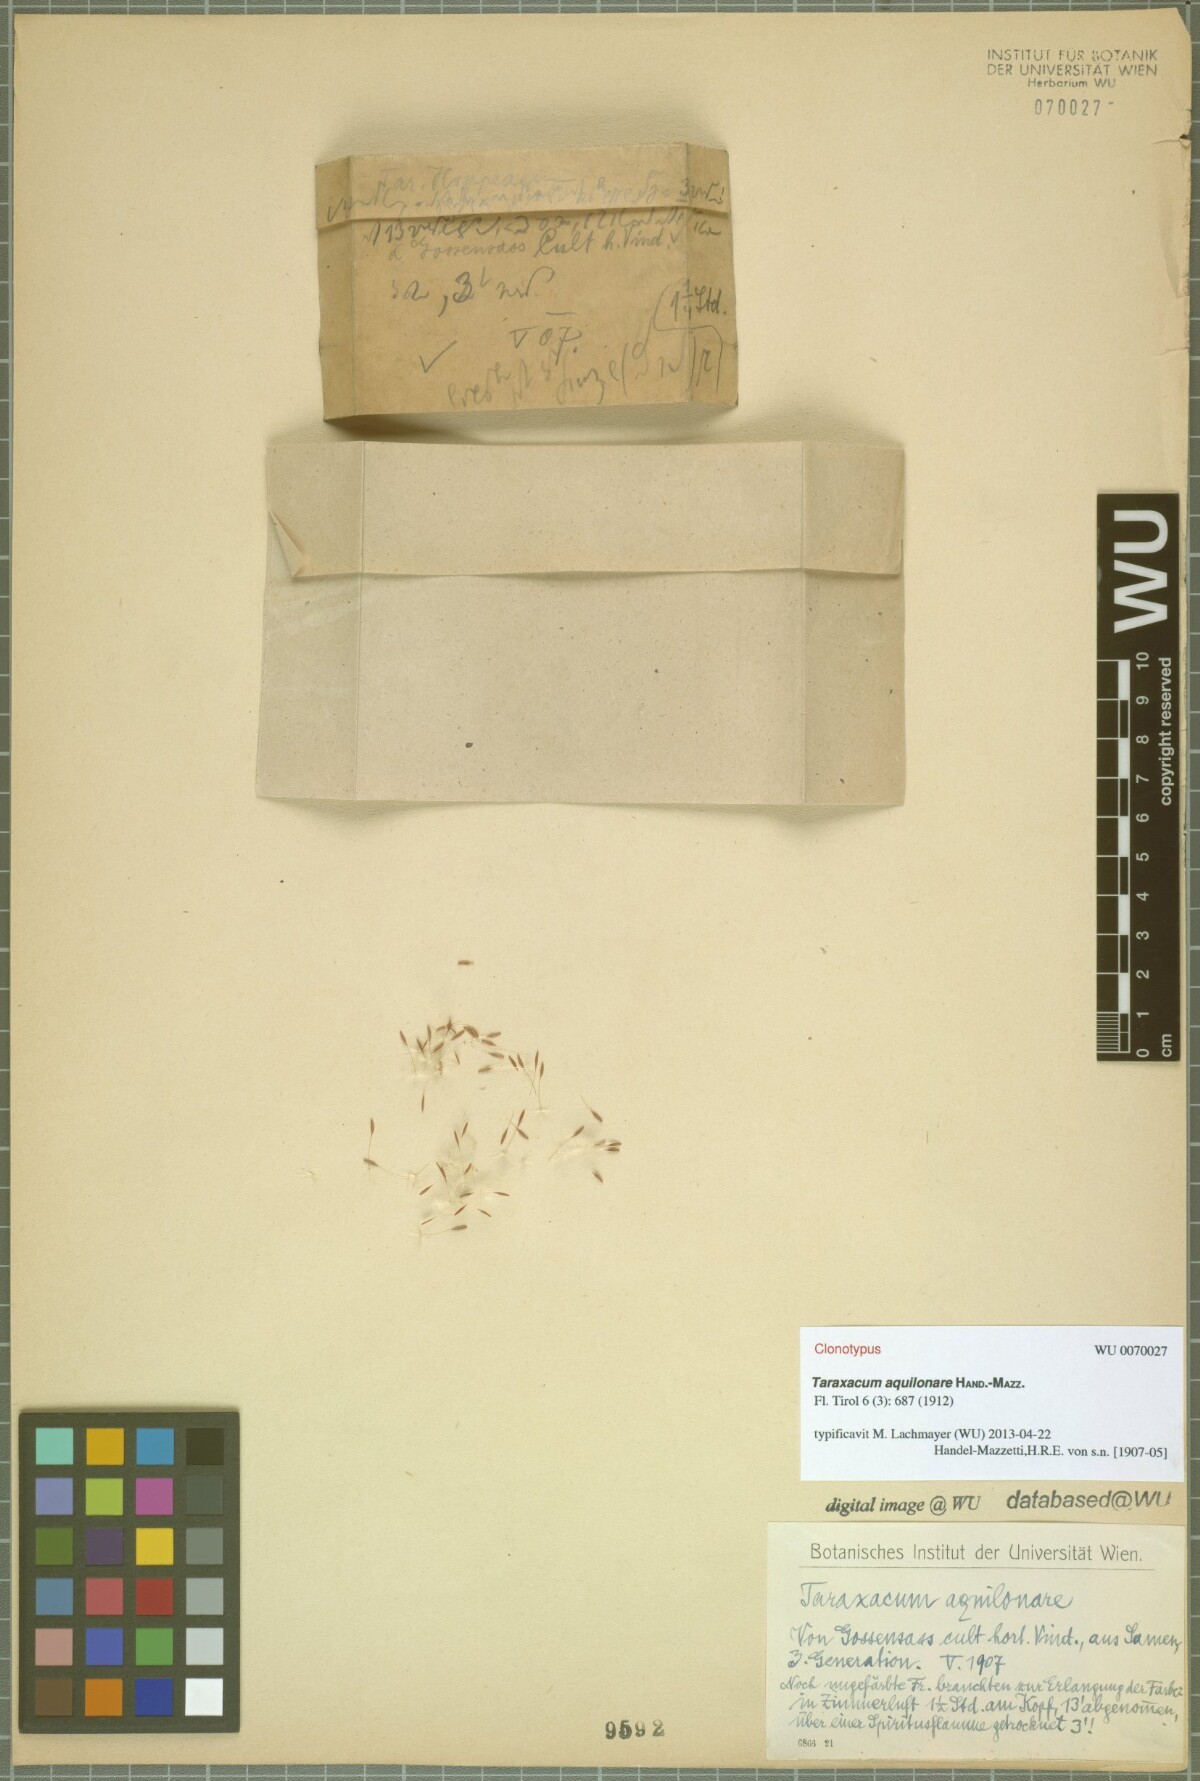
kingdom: Plantae
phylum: Tracheophyta
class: Magnoliopsida
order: Asterales
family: Asteraceae
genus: Taraxacum
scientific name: Taraxacum aquilonare
